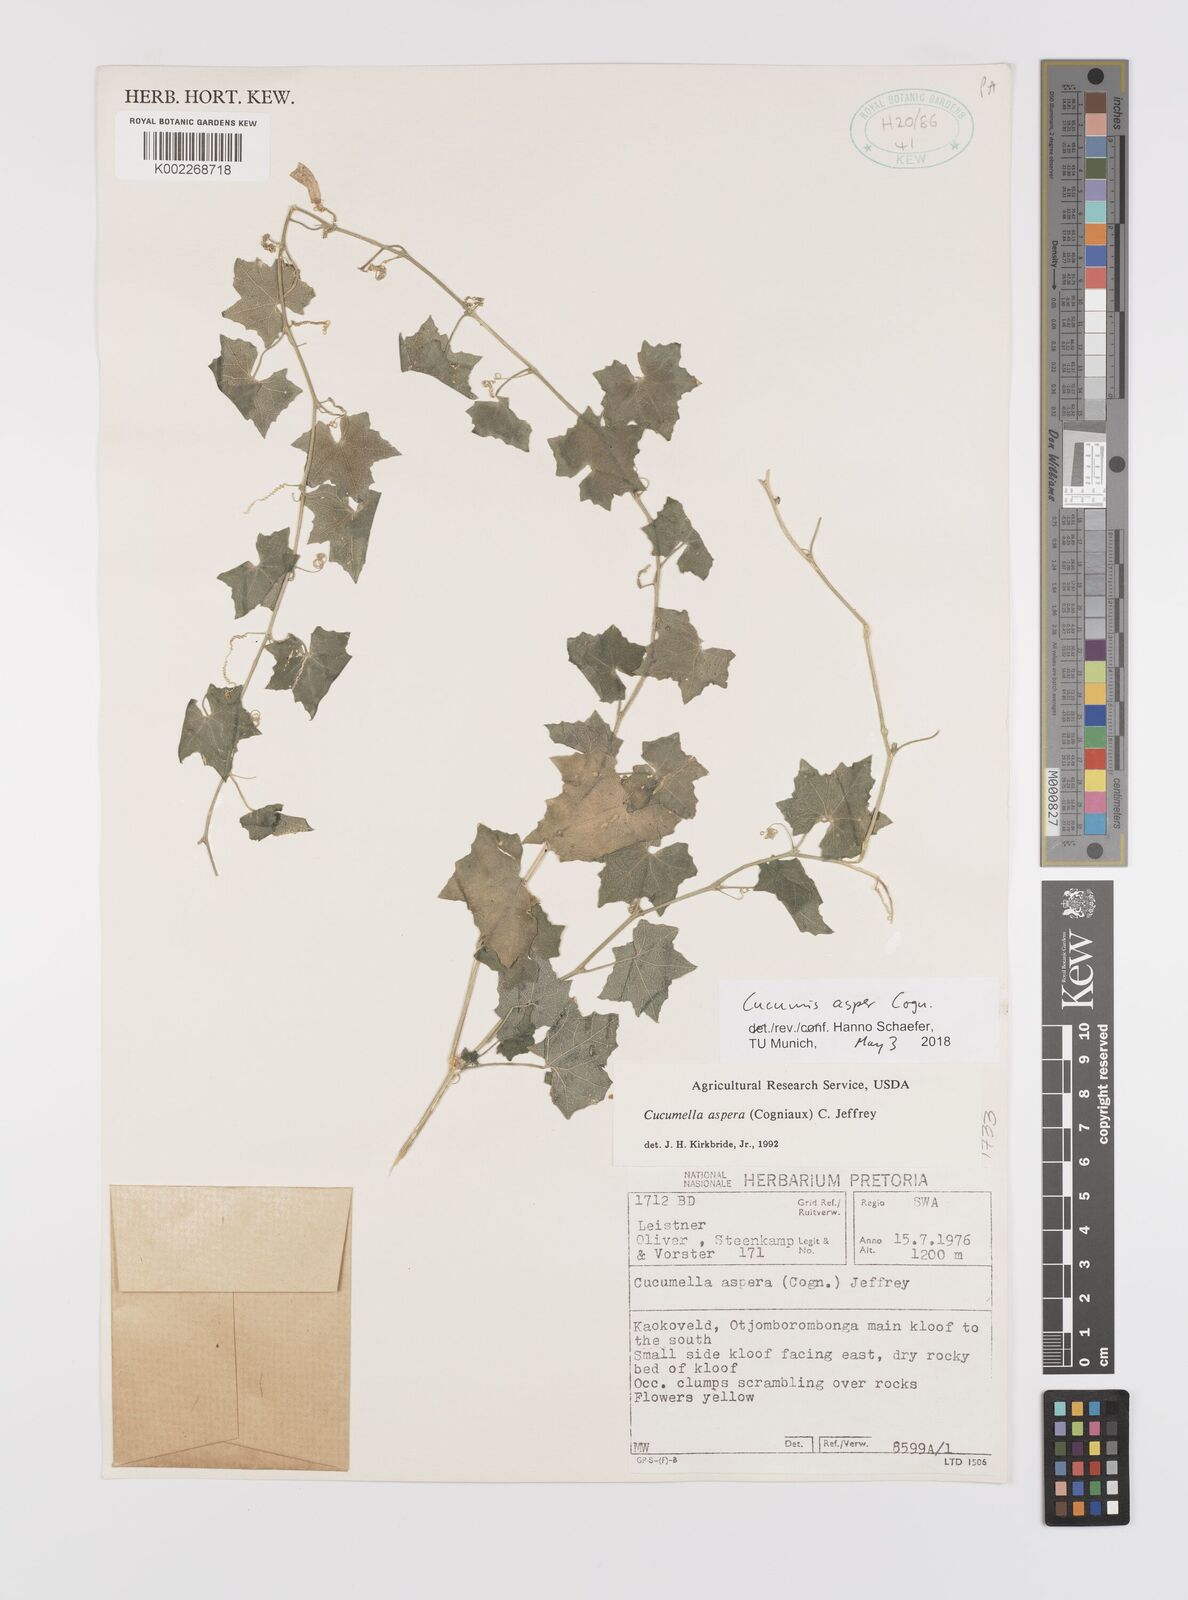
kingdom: Plantae
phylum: Tracheophyta
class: Magnoliopsida
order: Cucurbitales
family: Cucurbitaceae
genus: Cucumis
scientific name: Cucumis asper
